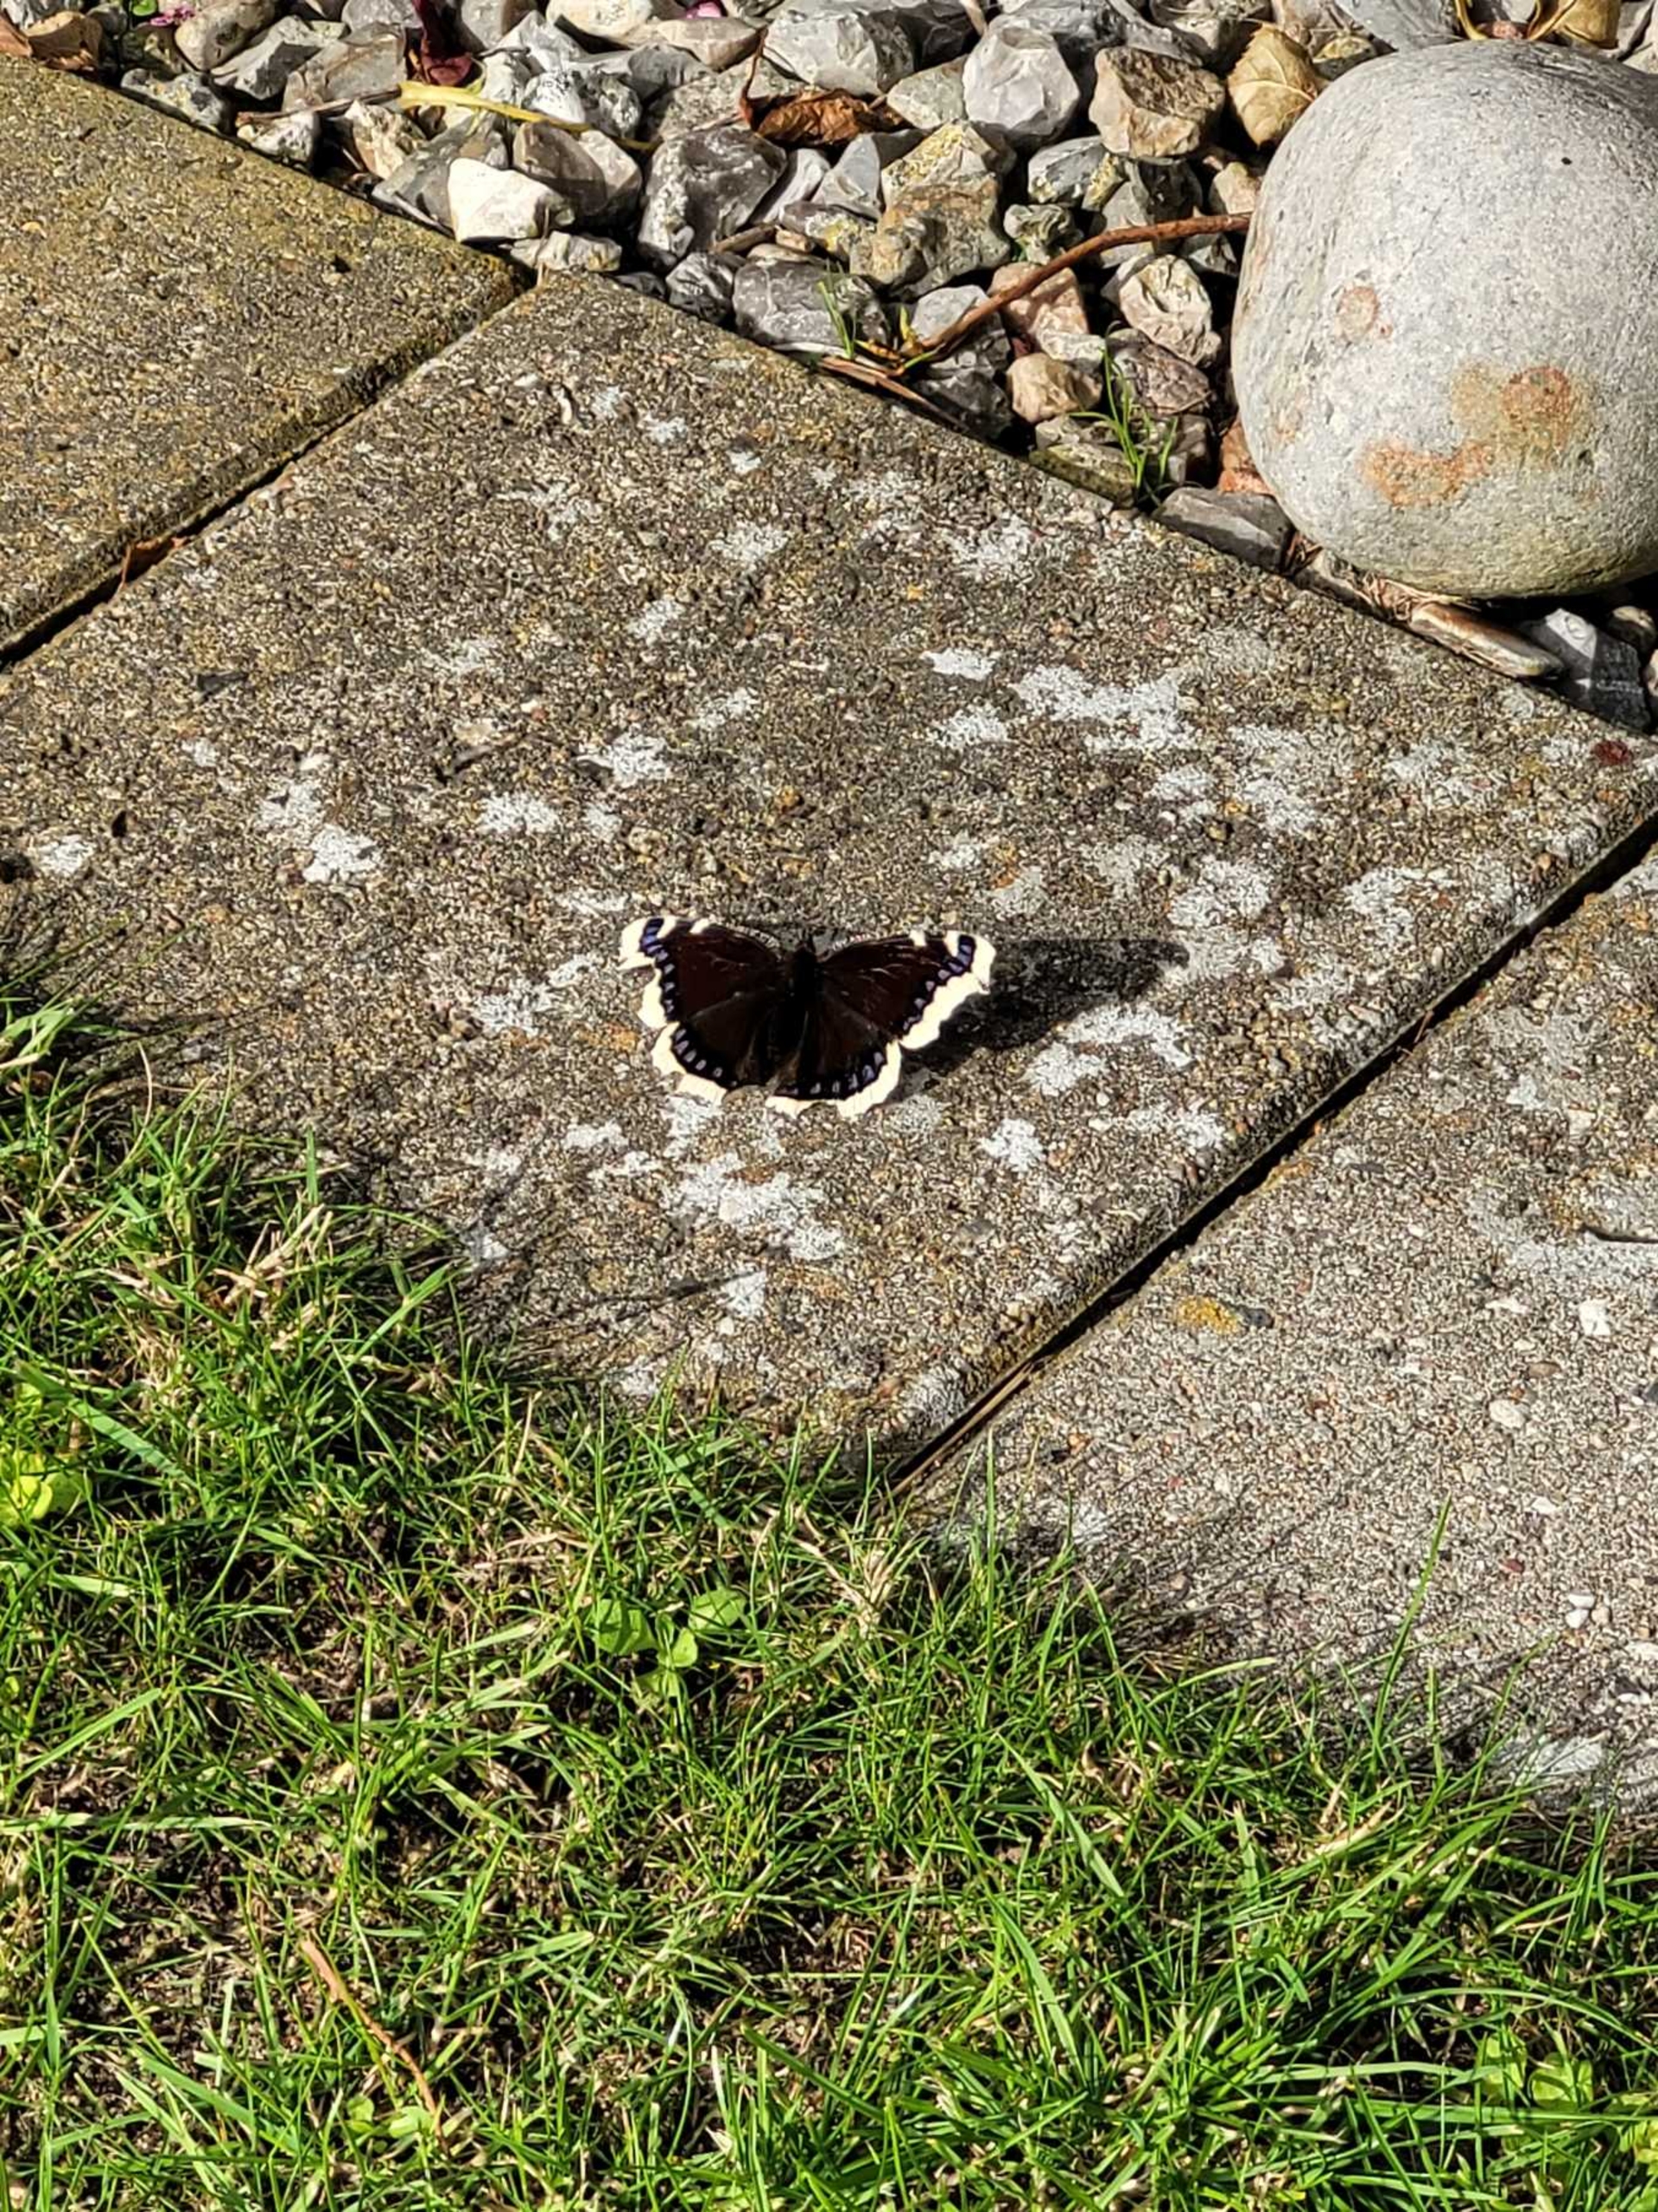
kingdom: Animalia
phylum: Arthropoda
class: Insecta
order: Lepidoptera
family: Nymphalidae
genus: Nymphalis
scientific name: Nymphalis antiopa
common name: Sørgekåbe
